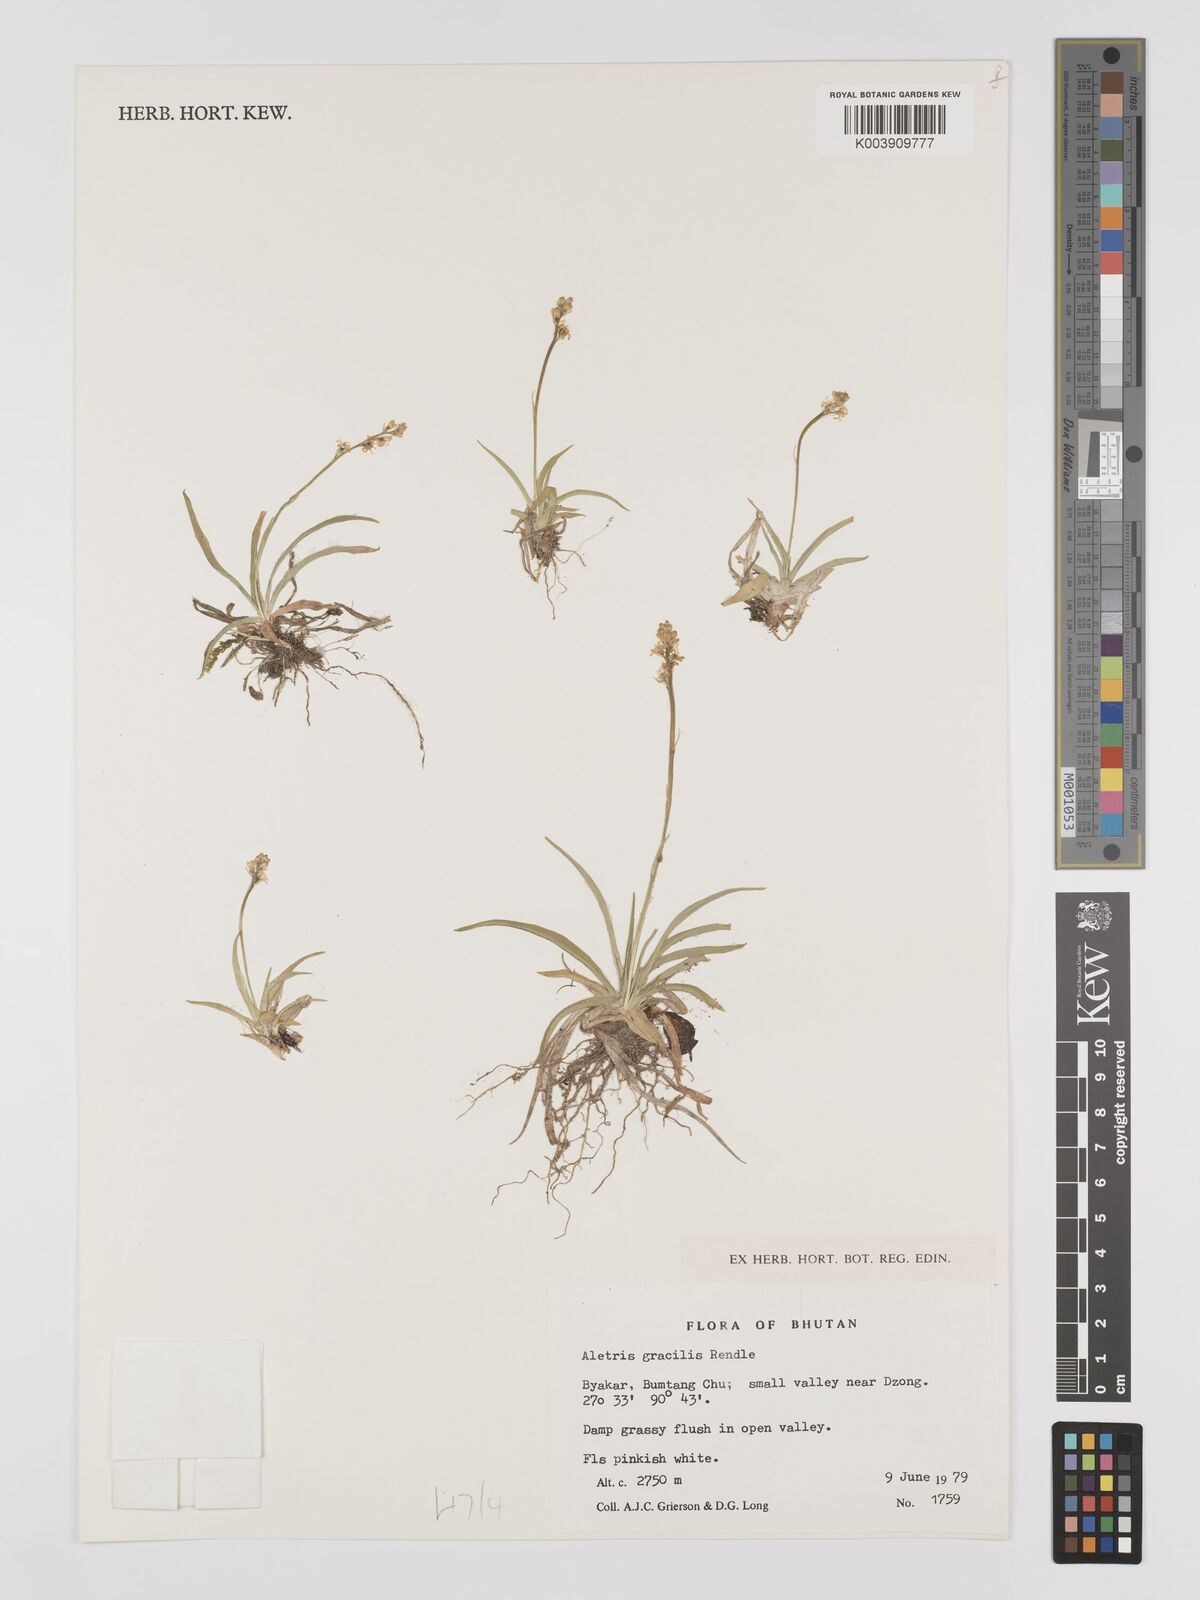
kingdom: Plantae
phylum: Tracheophyta
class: Liliopsida
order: Dioscoreales
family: Nartheciaceae
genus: Aletris
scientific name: Aletris gracilis
